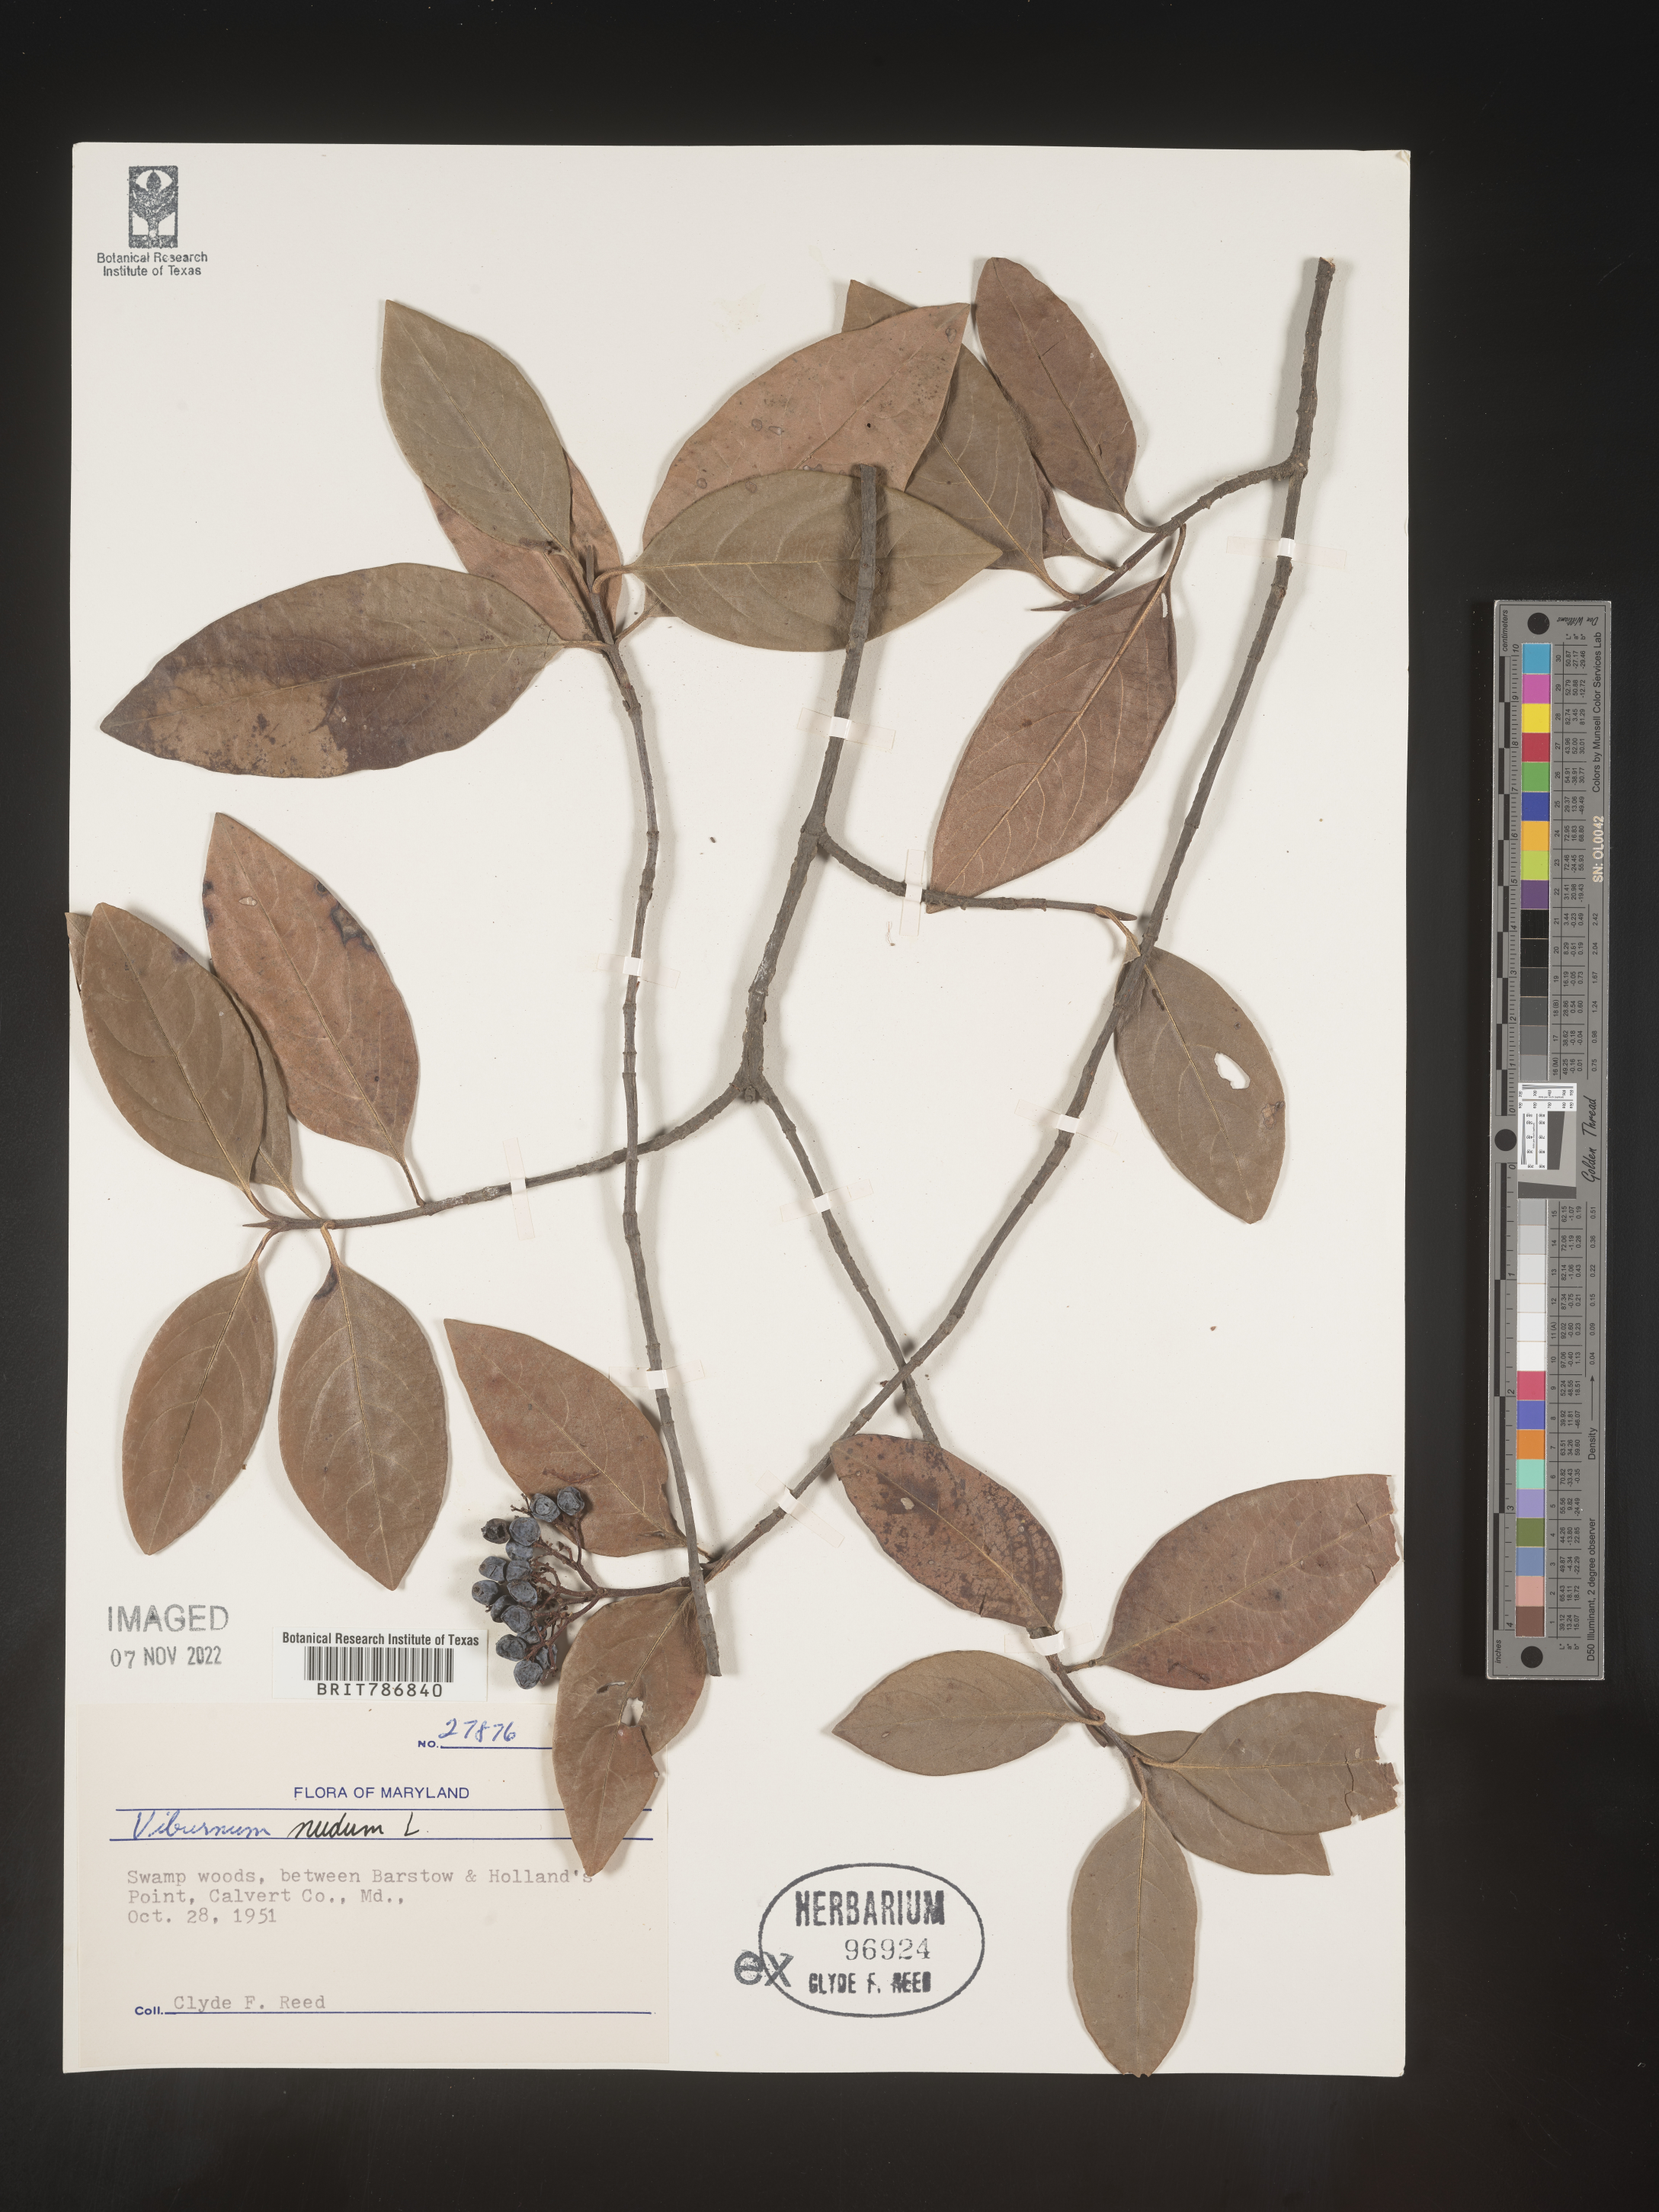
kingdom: Plantae
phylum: Tracheophyta
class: Magnoliopsida
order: Dipsacales
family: Viburnaceae
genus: Viburnum
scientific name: Viburnum nudum
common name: Possum haw
